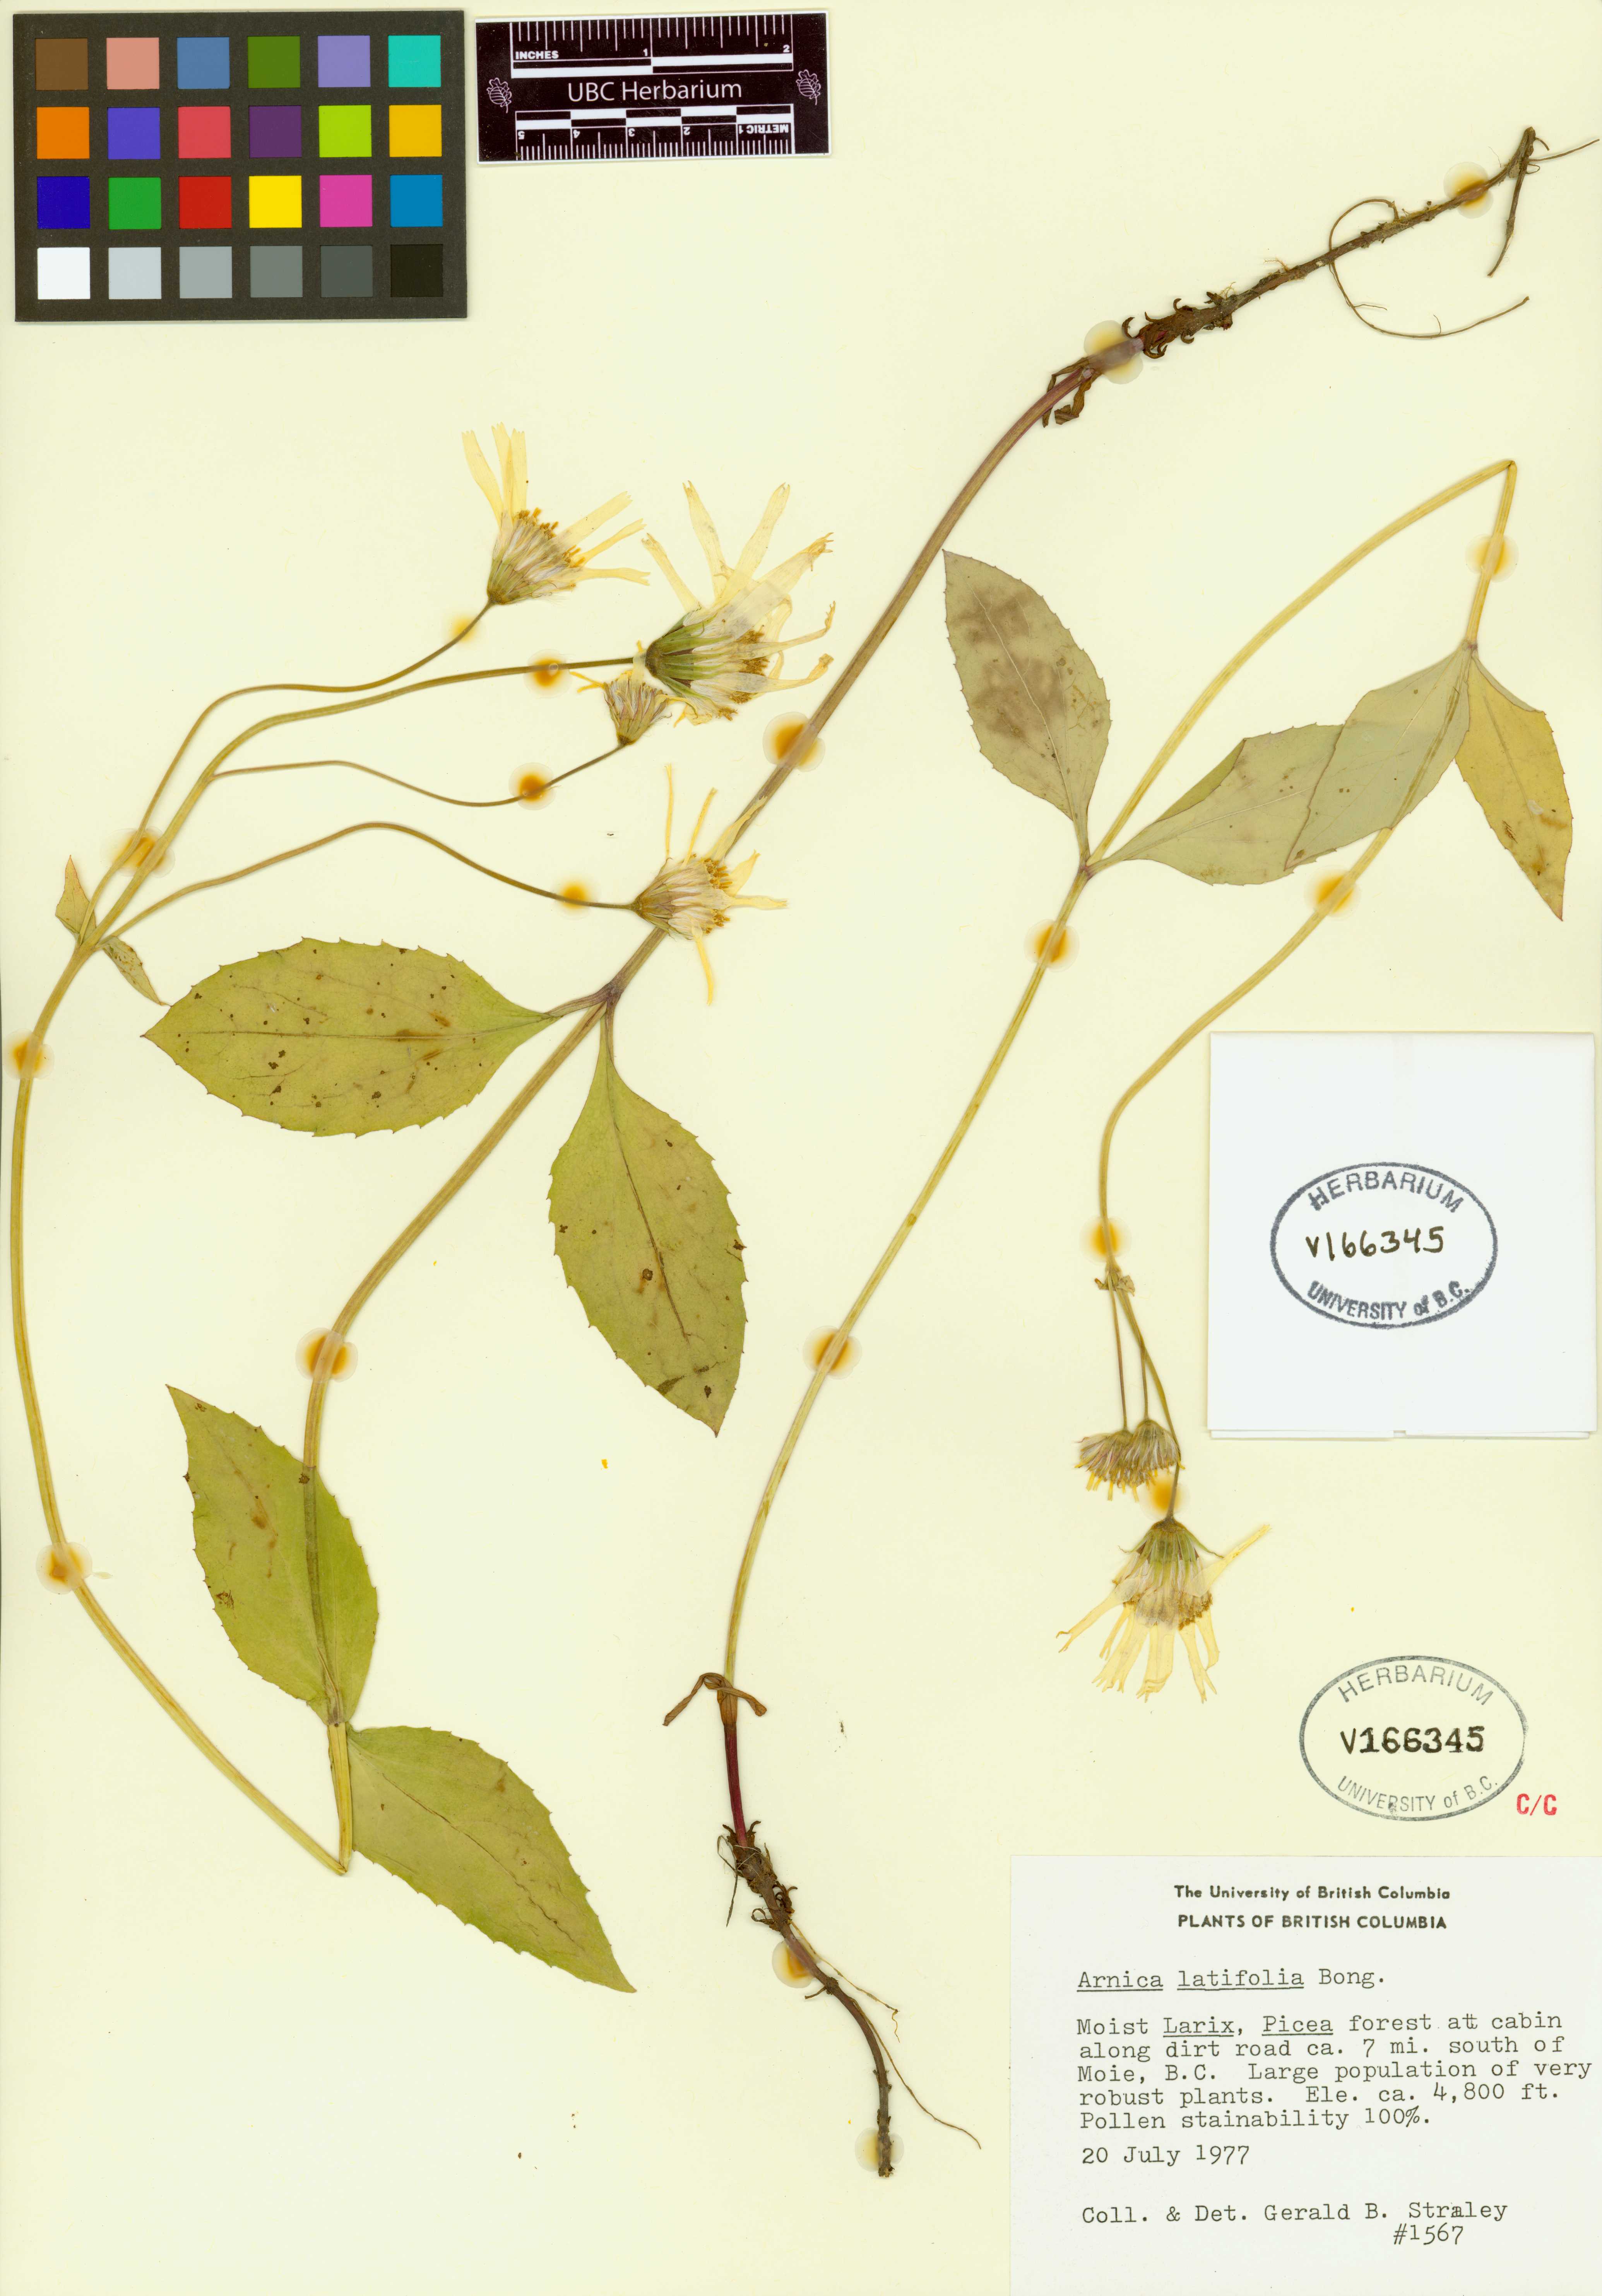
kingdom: Plantae
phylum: Tracheophyta
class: Magnoliopsida
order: Asterales
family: Asteraceae
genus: Arnica
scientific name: Arnica latifolia
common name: Arnica
